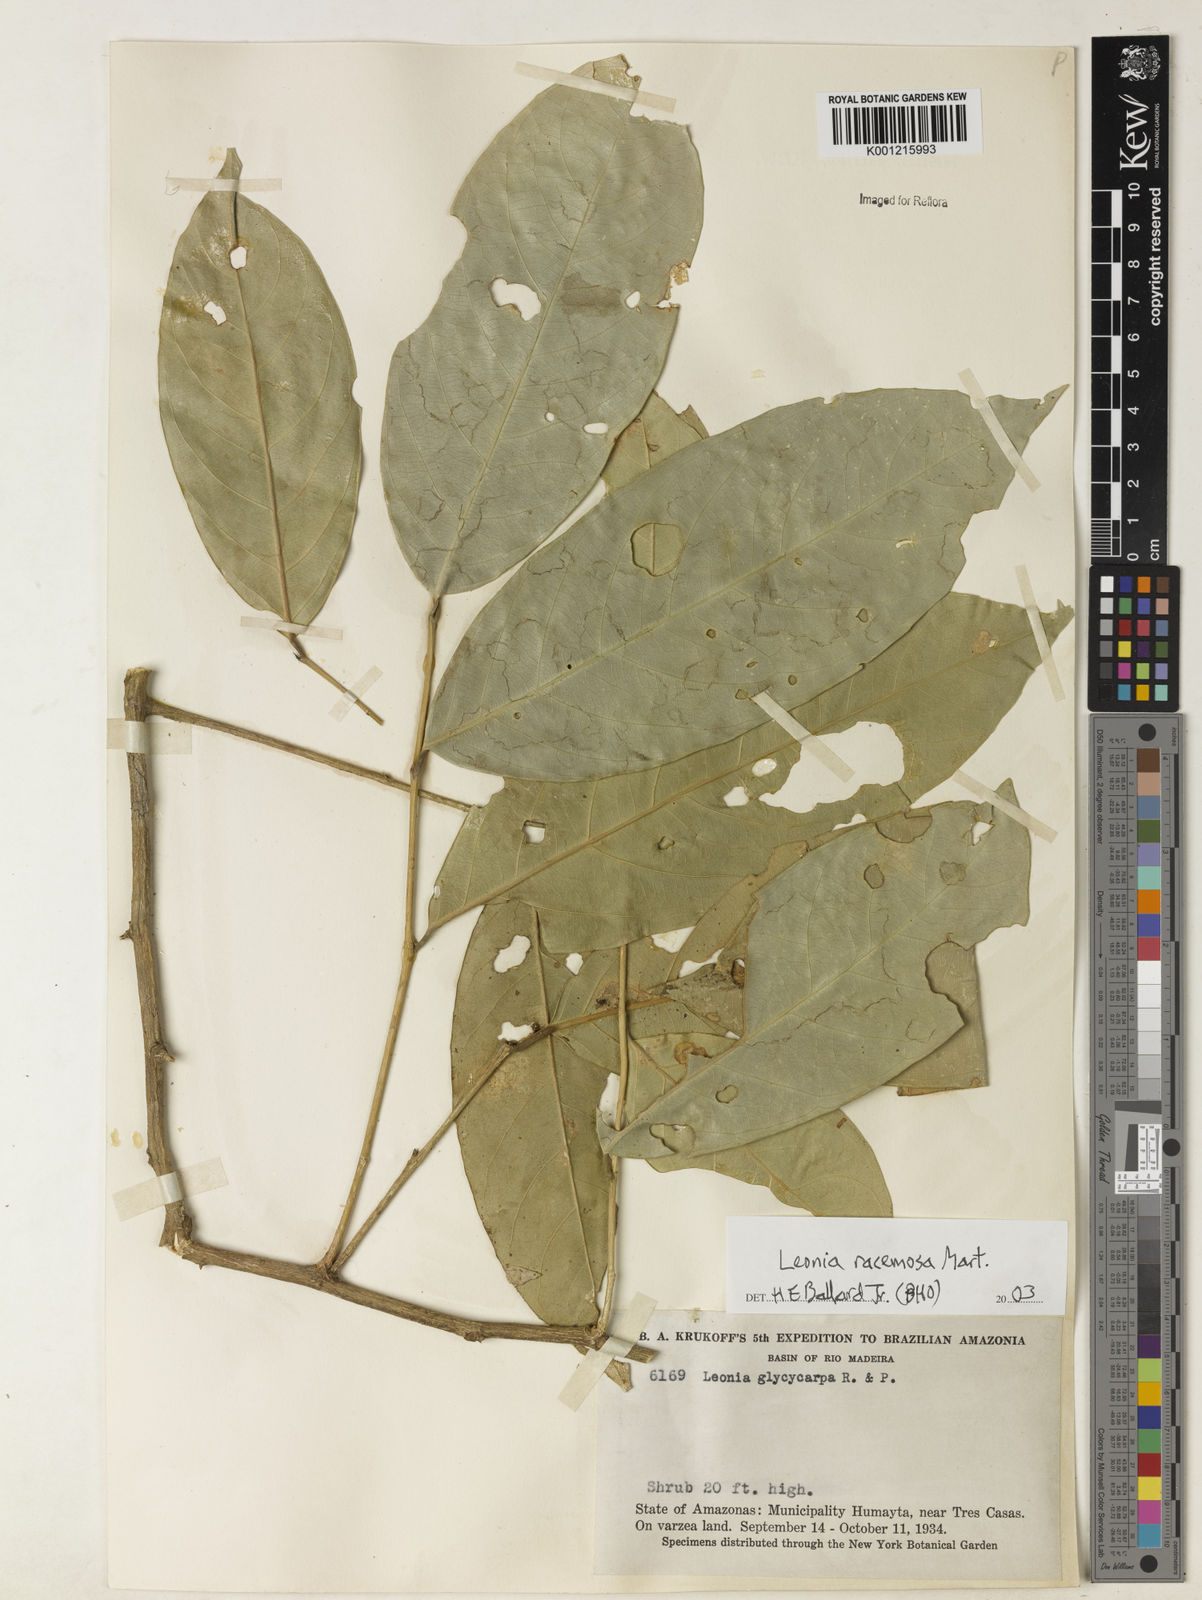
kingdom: Plantae
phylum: Tracheophyta
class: Magnoliopsida
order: Malpighiales
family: Violaceae
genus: Leonia
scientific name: Leonia glycycarpa
